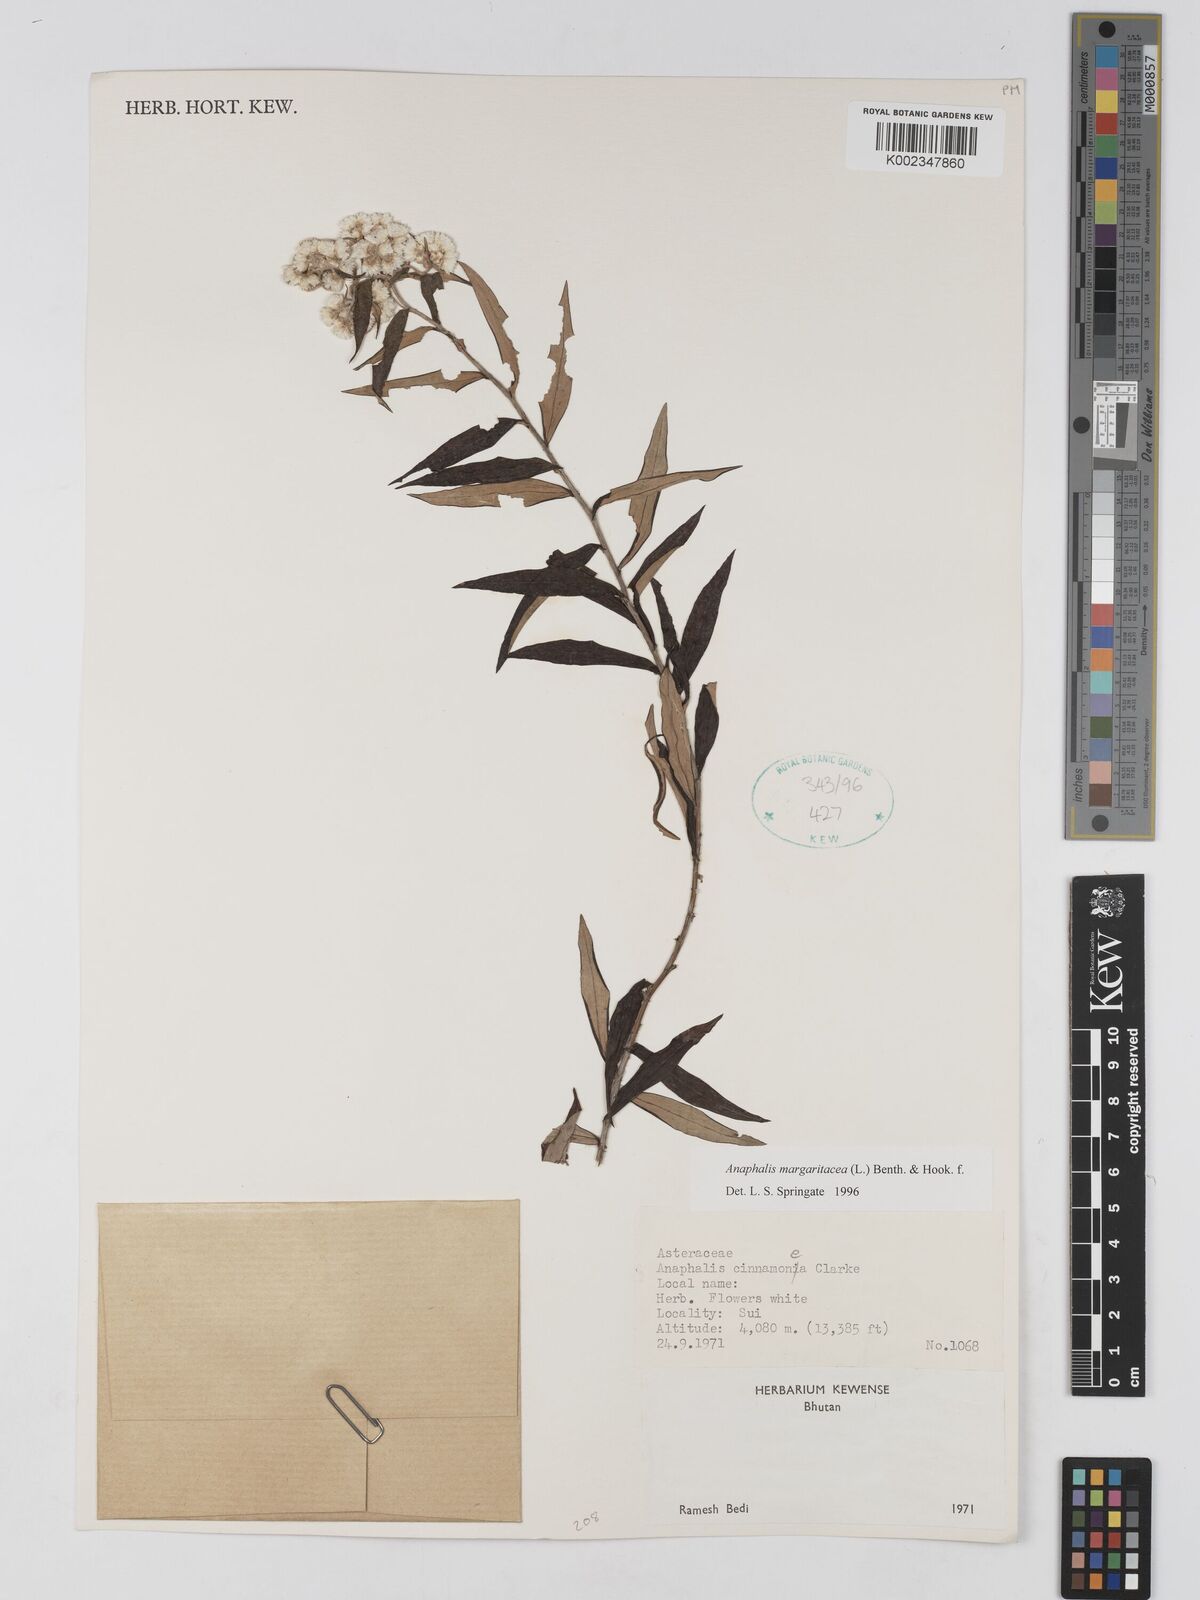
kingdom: Plantae
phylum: Tracheophyta
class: Magnoliopsida
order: Asterales
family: Asteraceae
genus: Anaphalis
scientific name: Anaphalis margaritacea
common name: Pearly everlasting
